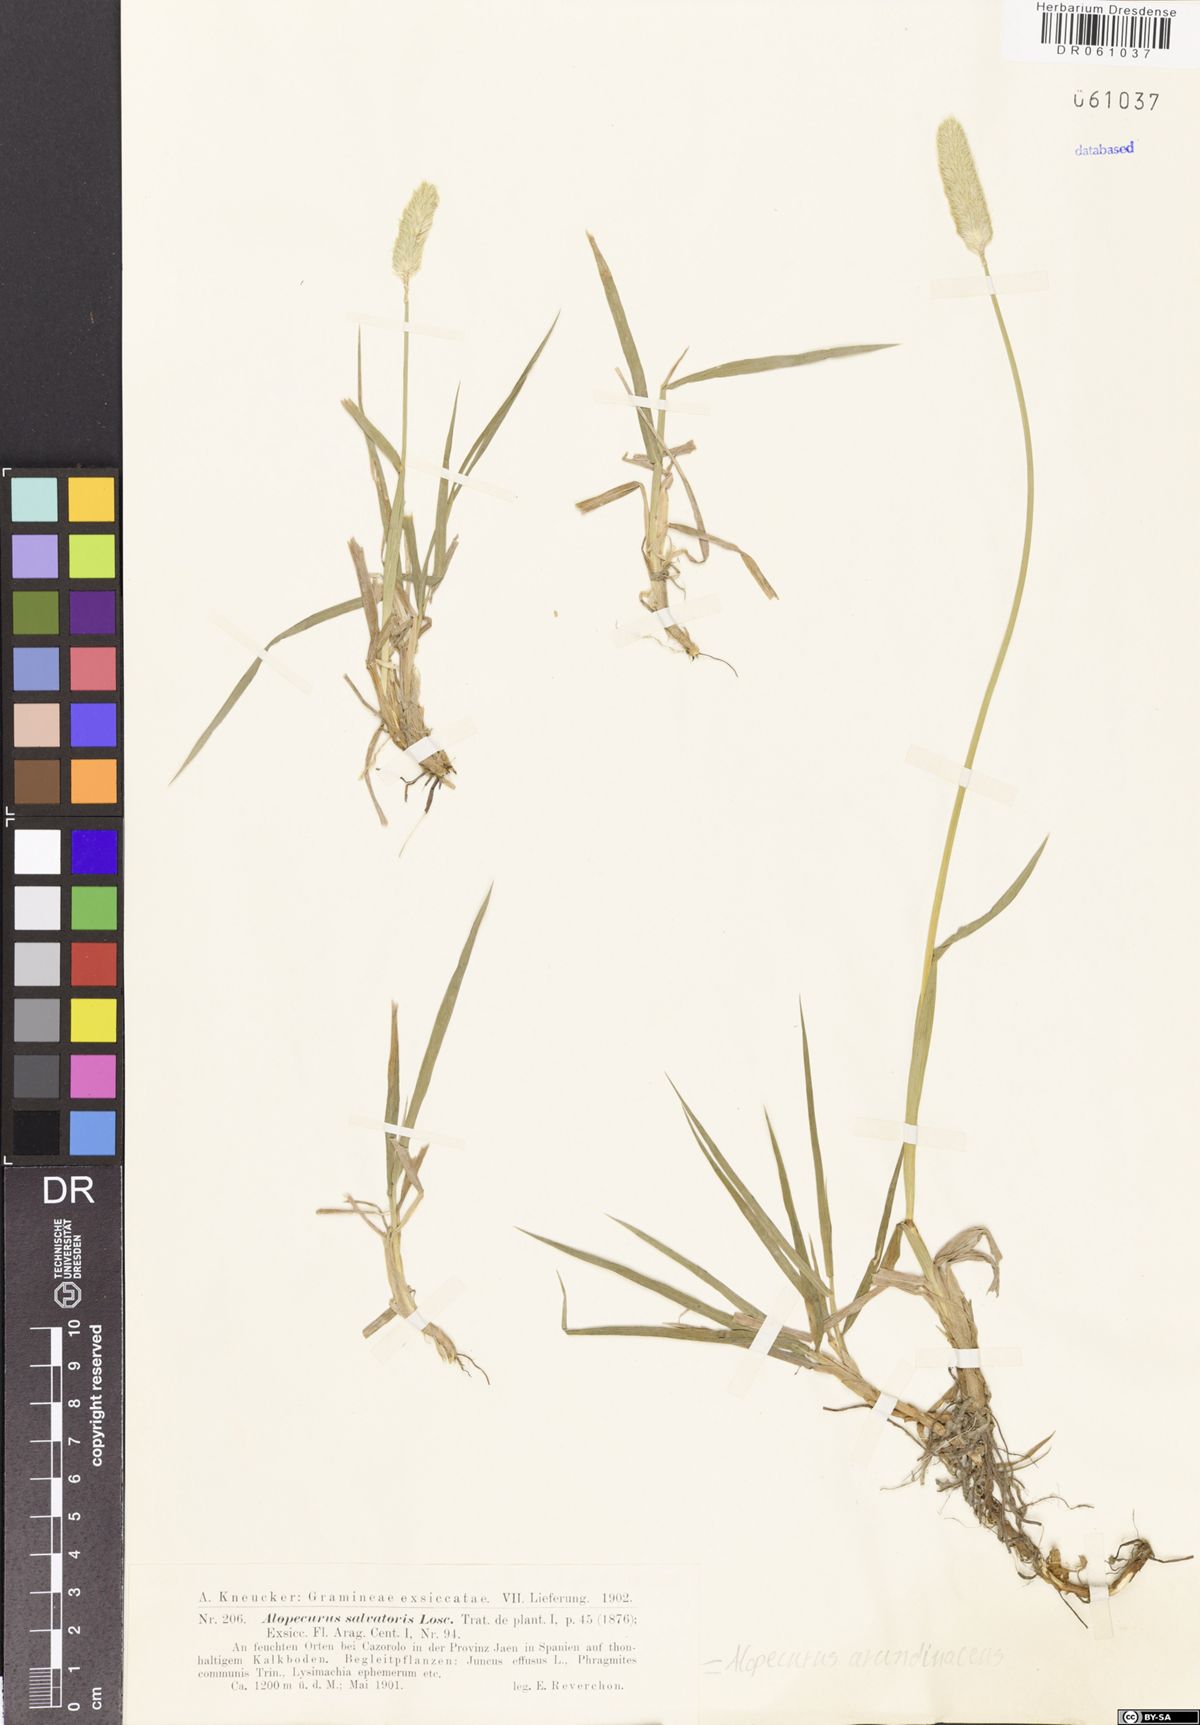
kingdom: Plantae
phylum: Tracheophyta
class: Liliopsida
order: Poales
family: Poaceae
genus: Alopecurus
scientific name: Alopecurus arundinaceus
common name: Creeping meadow foxtail
